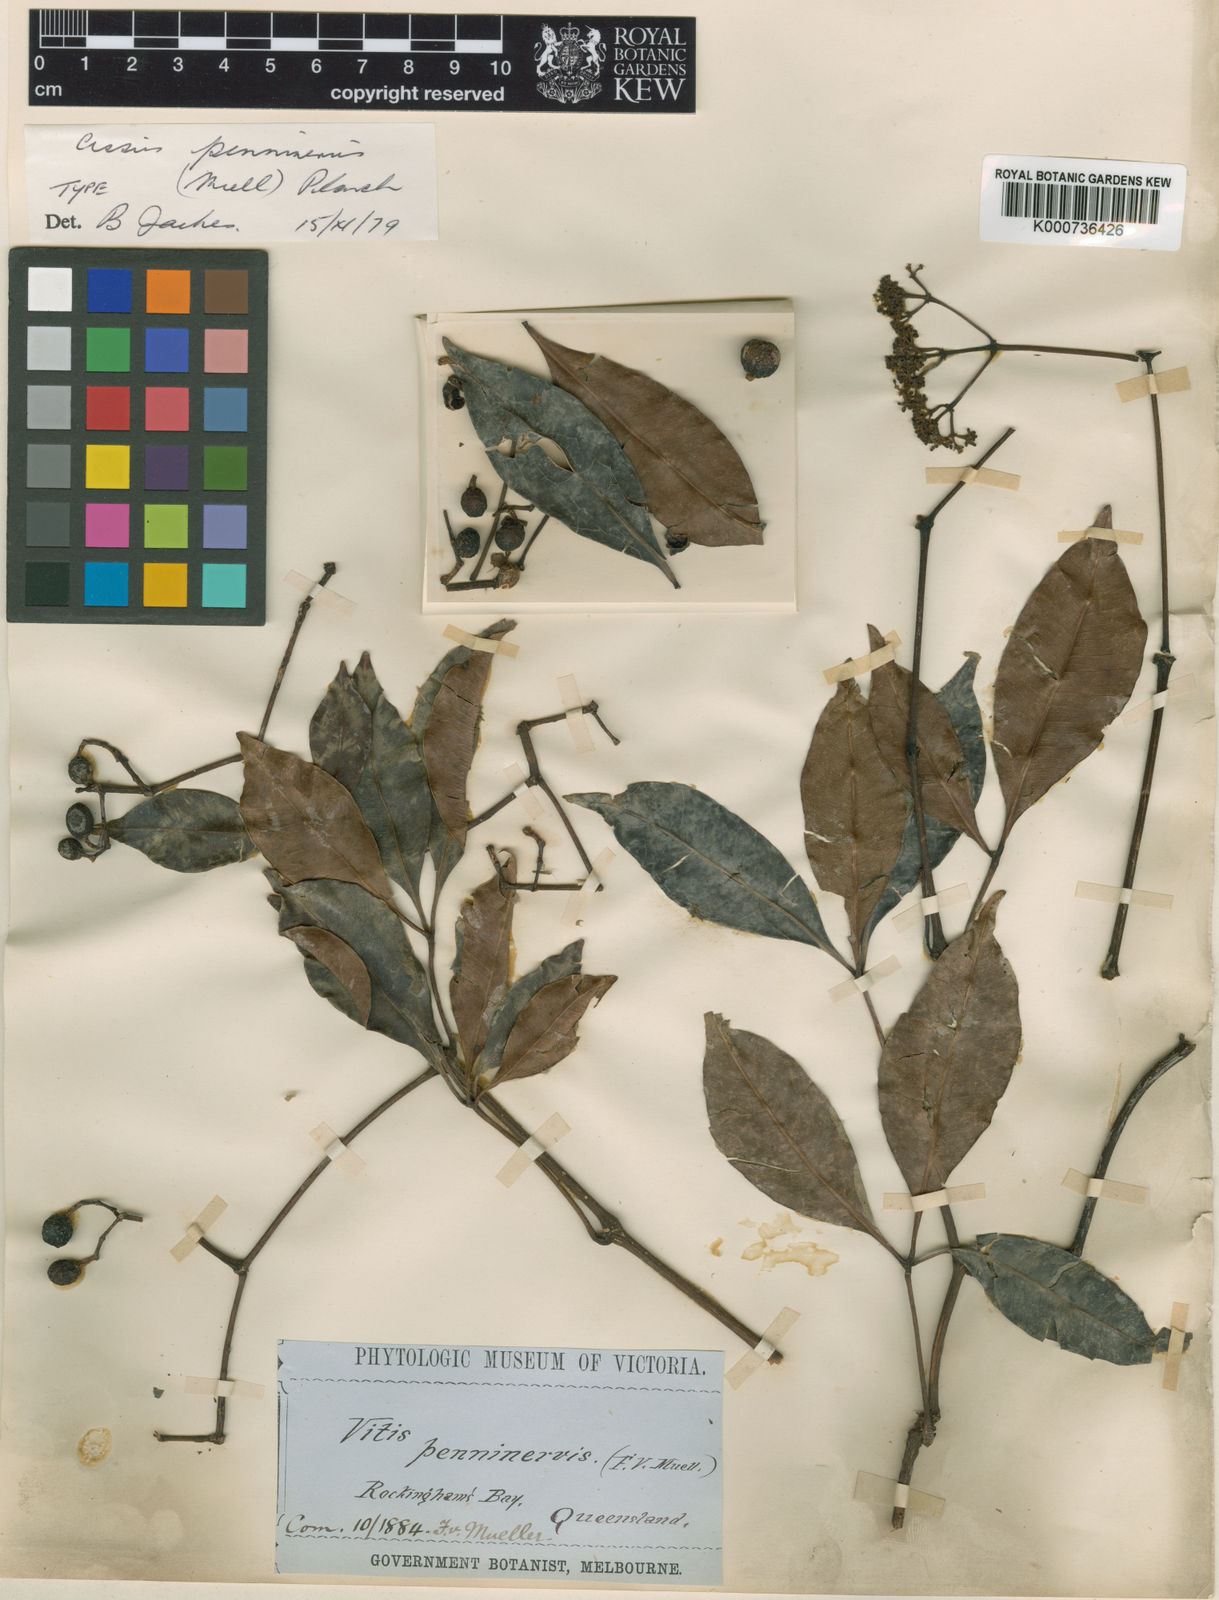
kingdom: Plantae
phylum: Tracheophyta
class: Magnoliopsida
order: Vitales
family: Vitaceae
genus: Nothocissus
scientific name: Nothocissus penninervis
